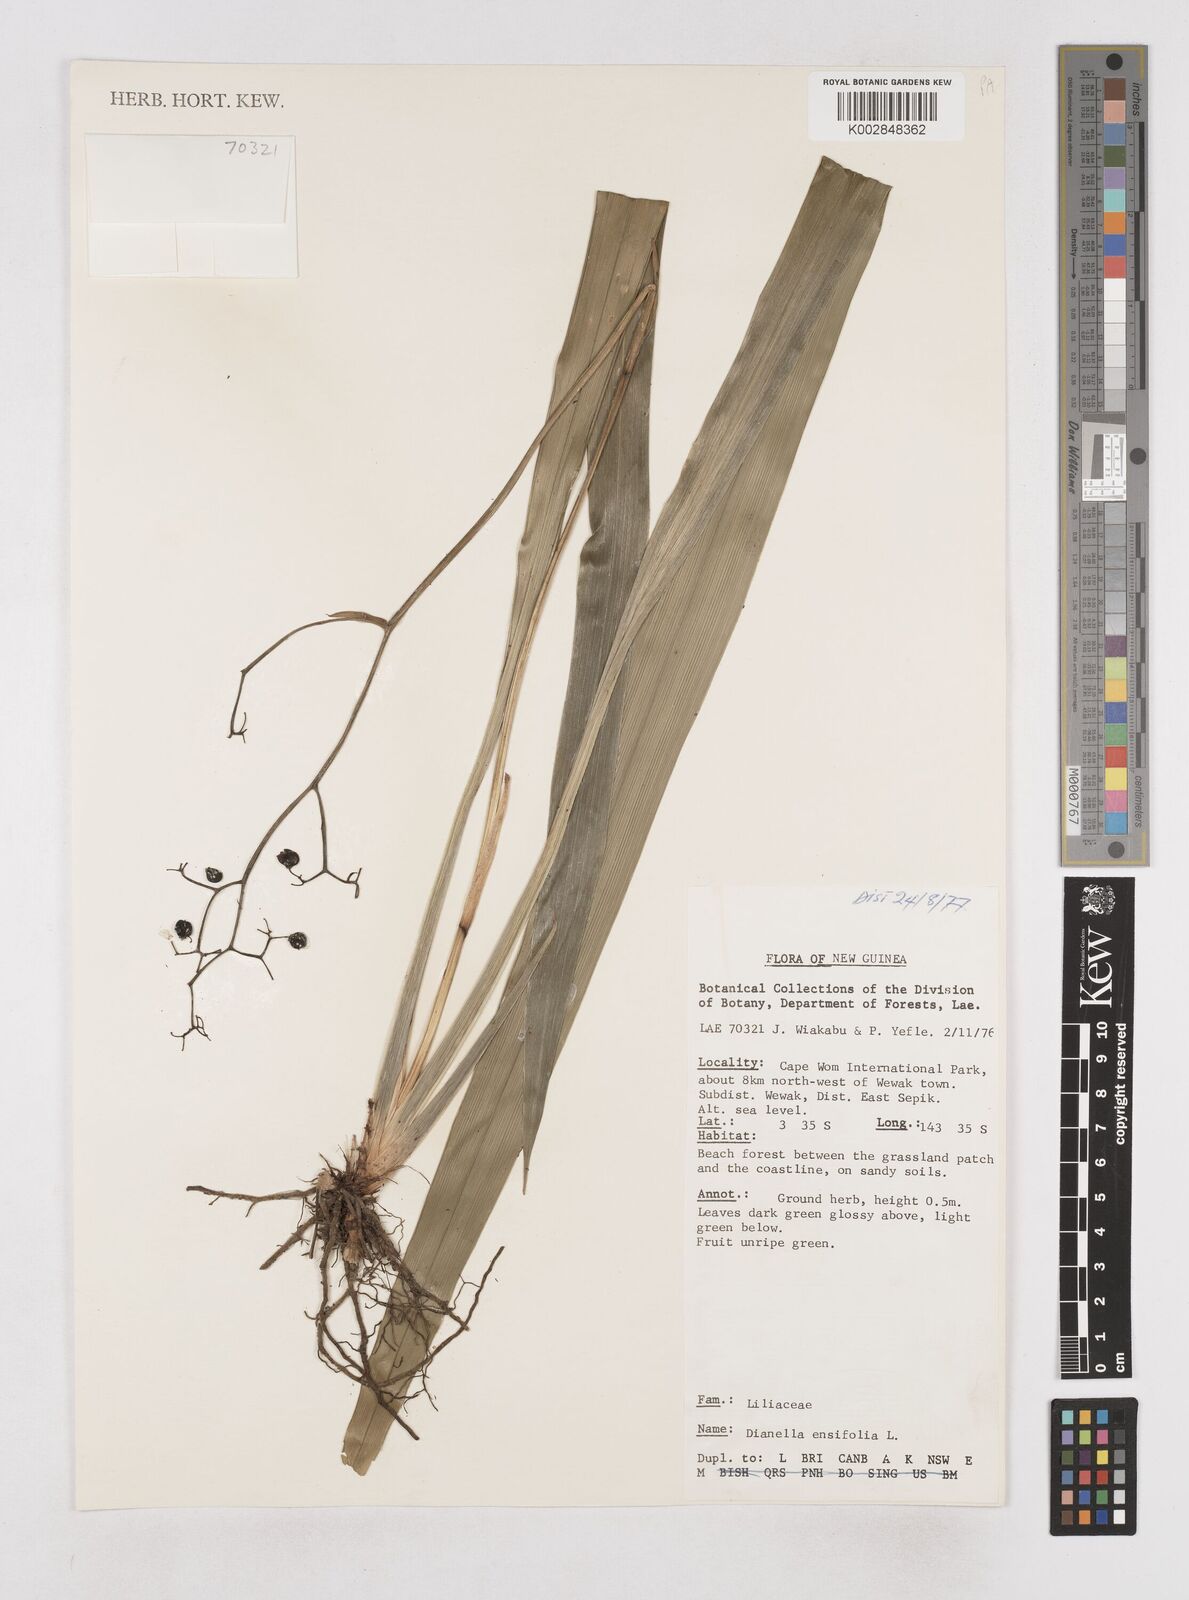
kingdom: Plantae
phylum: Tracheophyta
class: Liliopsida
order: Asparagales
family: Asphodelaceae
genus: Dianella
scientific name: Dianella ensifolia
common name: New zealand lilyplant
